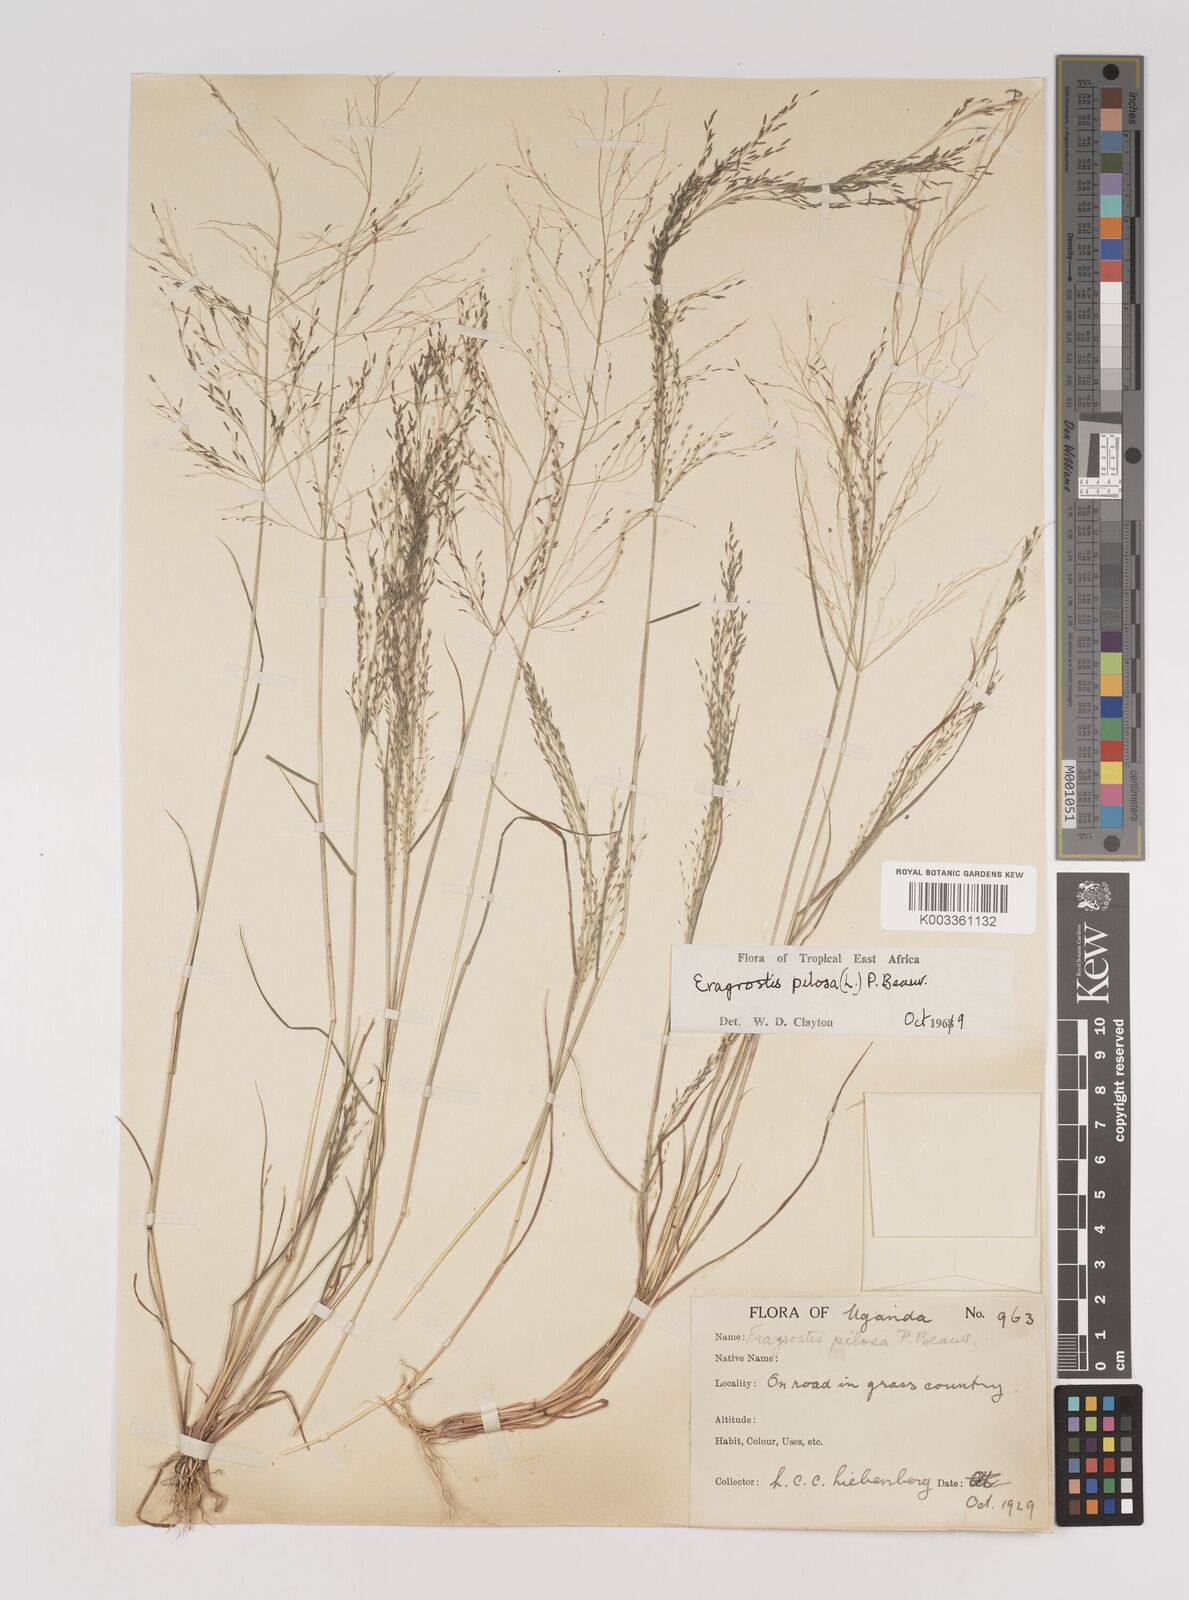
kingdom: Plantae
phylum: Tracheophyta
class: Liliopsida
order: Poales
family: Poaceae
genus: Eragrostis
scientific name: Eragrostis pilosa
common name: Indian lovegrass
